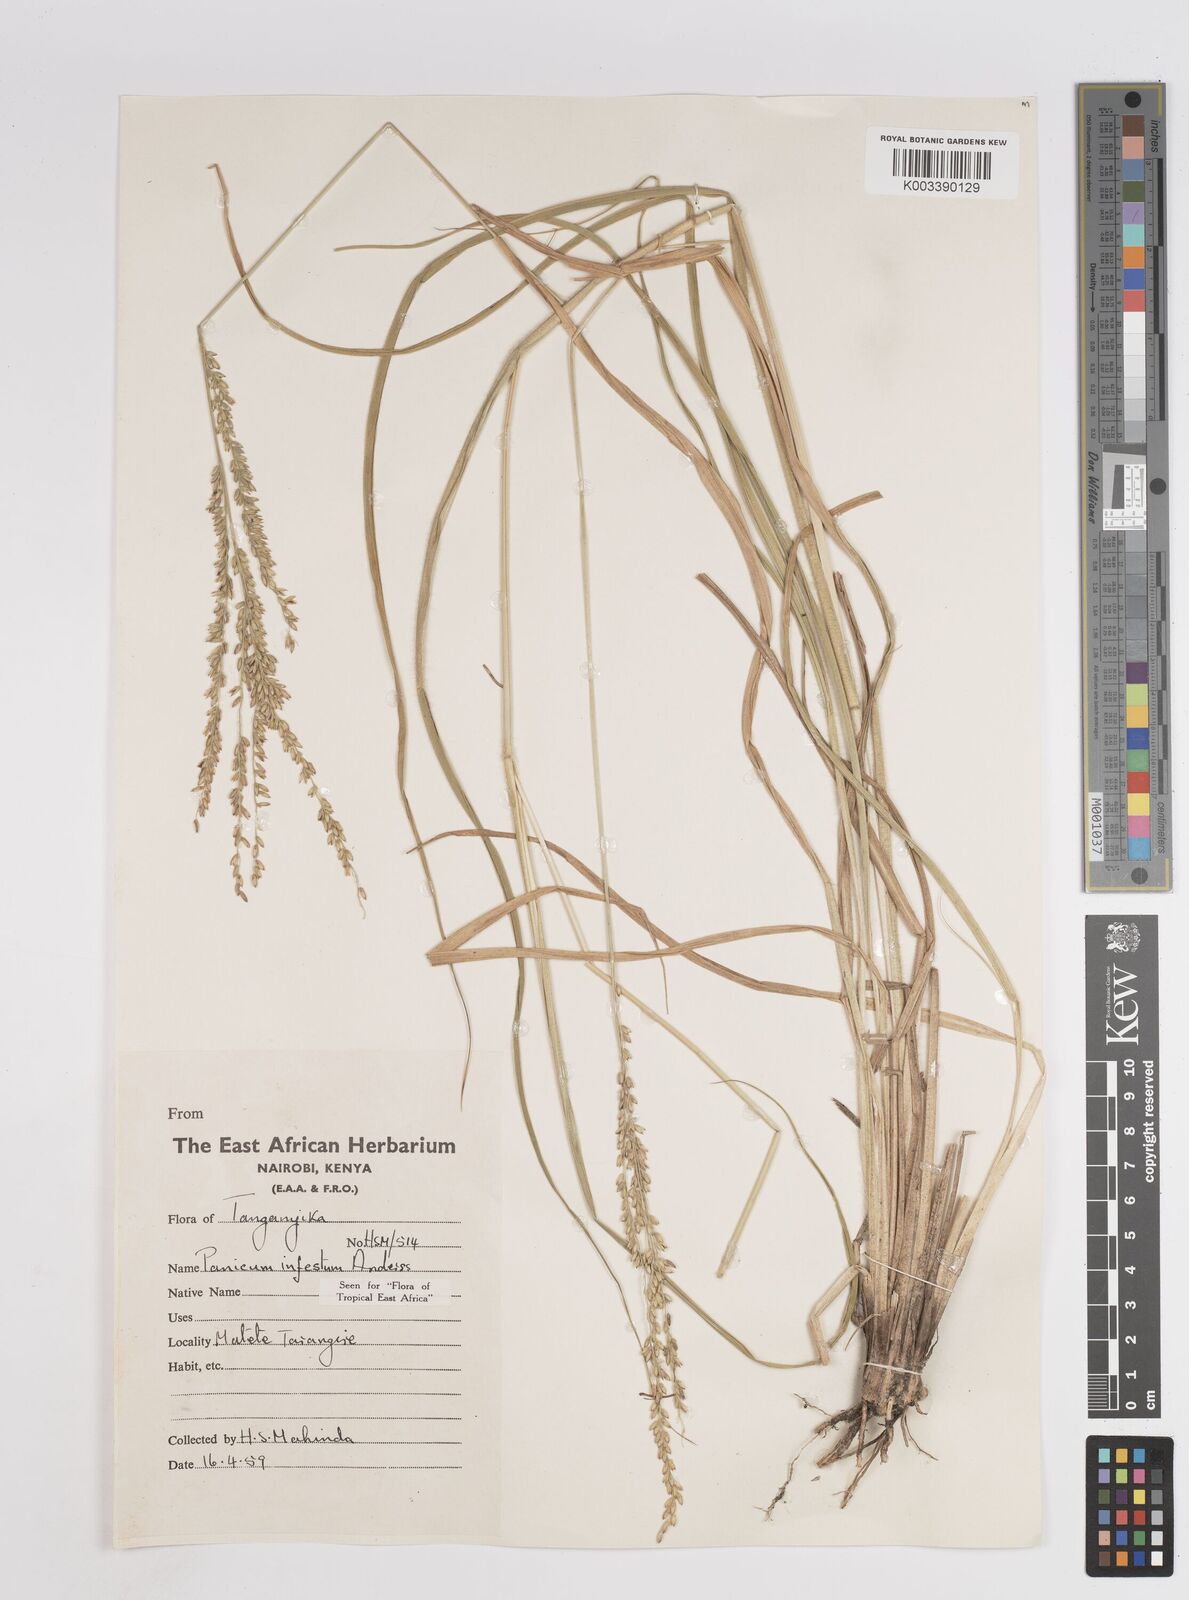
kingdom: Plantae
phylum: Tracheophyta
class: Liliopsida
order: Poales
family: Poaceae
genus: Megathyrsus
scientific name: Megathyrsus infestus
